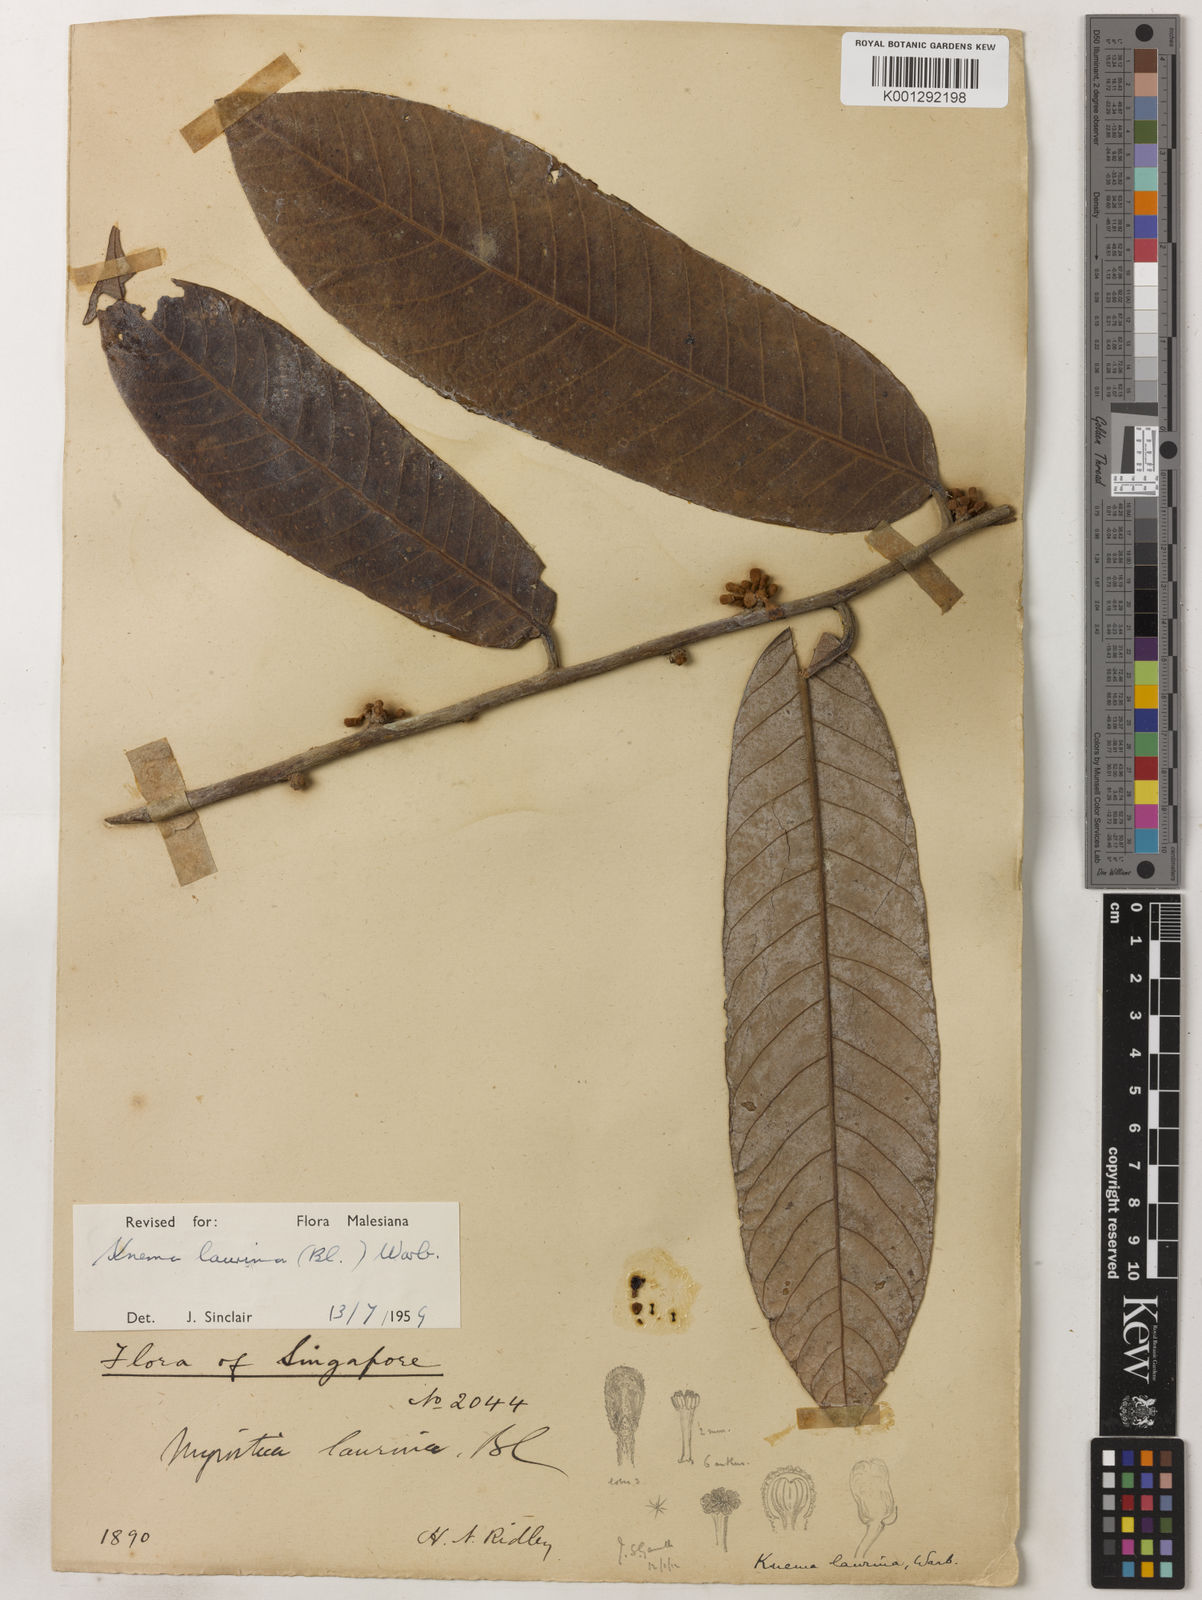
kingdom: Plantae
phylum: Tracheophyta
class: Magnoliopsida
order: Magnoliales
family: Myristicaceae
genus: Knema
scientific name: Knema laurina
